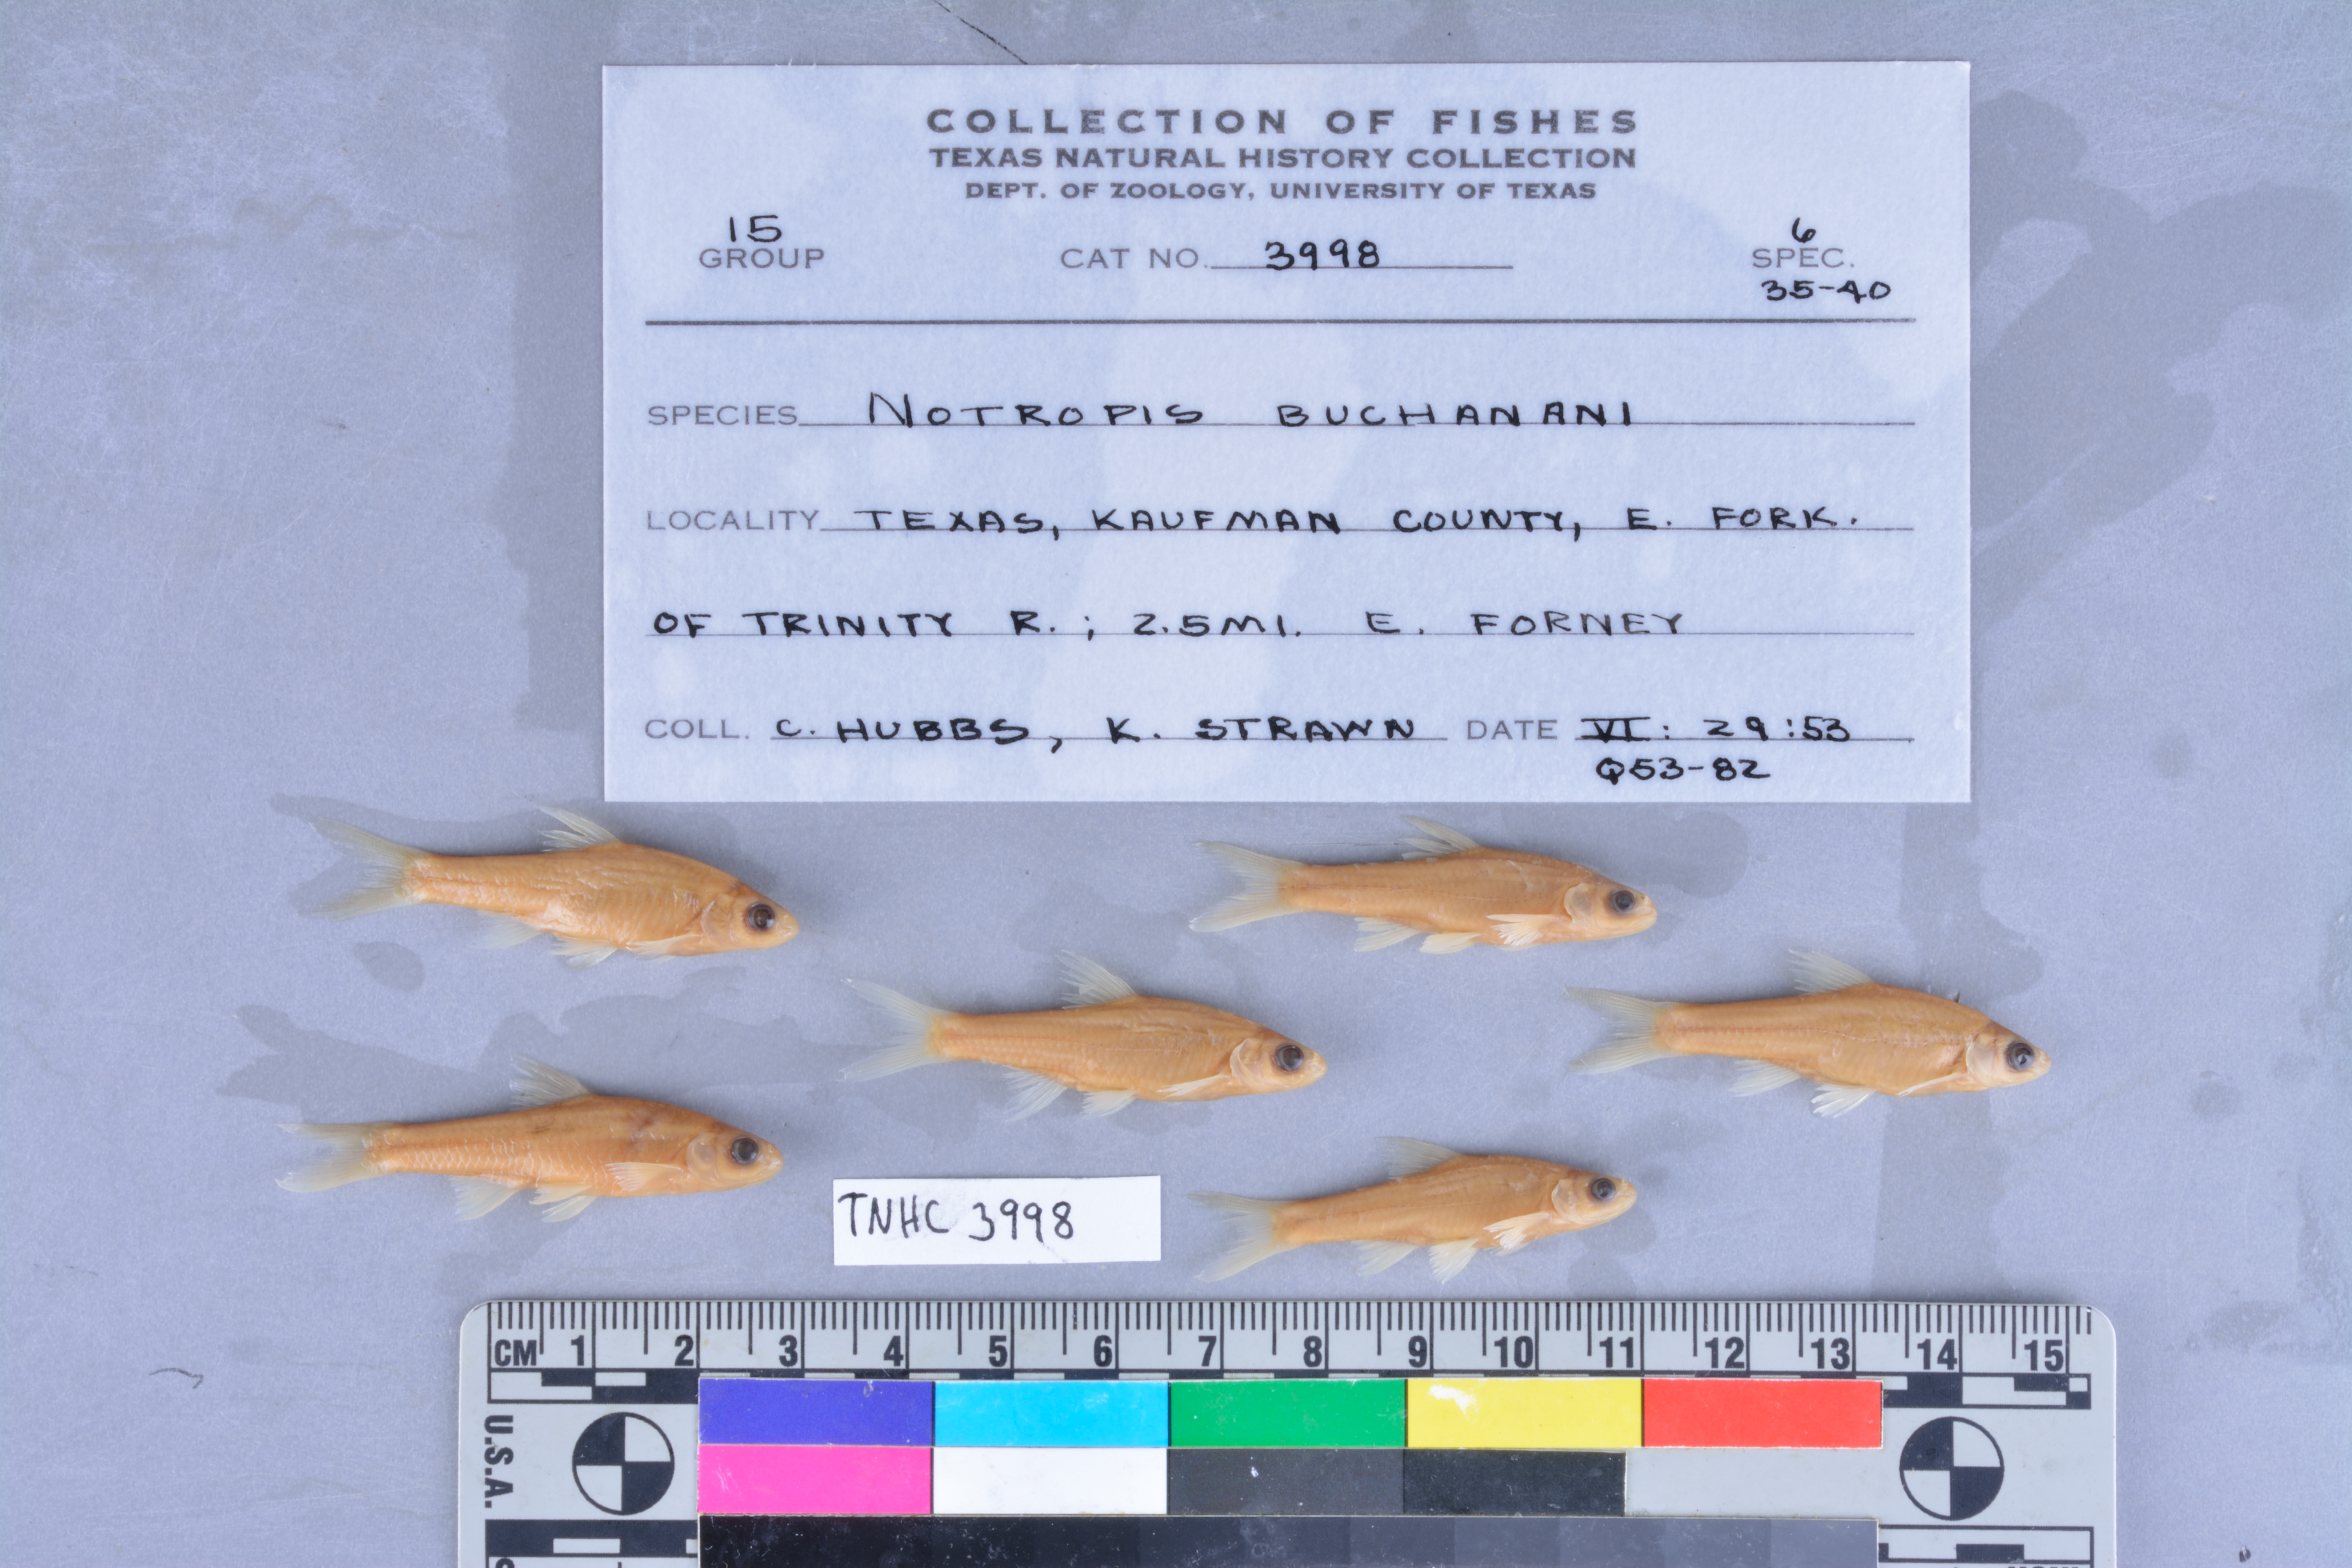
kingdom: Animalia
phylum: Chordata
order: Cypriniformes
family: Cyprinidae
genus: Notropis
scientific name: Notropis buchanani
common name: Ghost shiner
